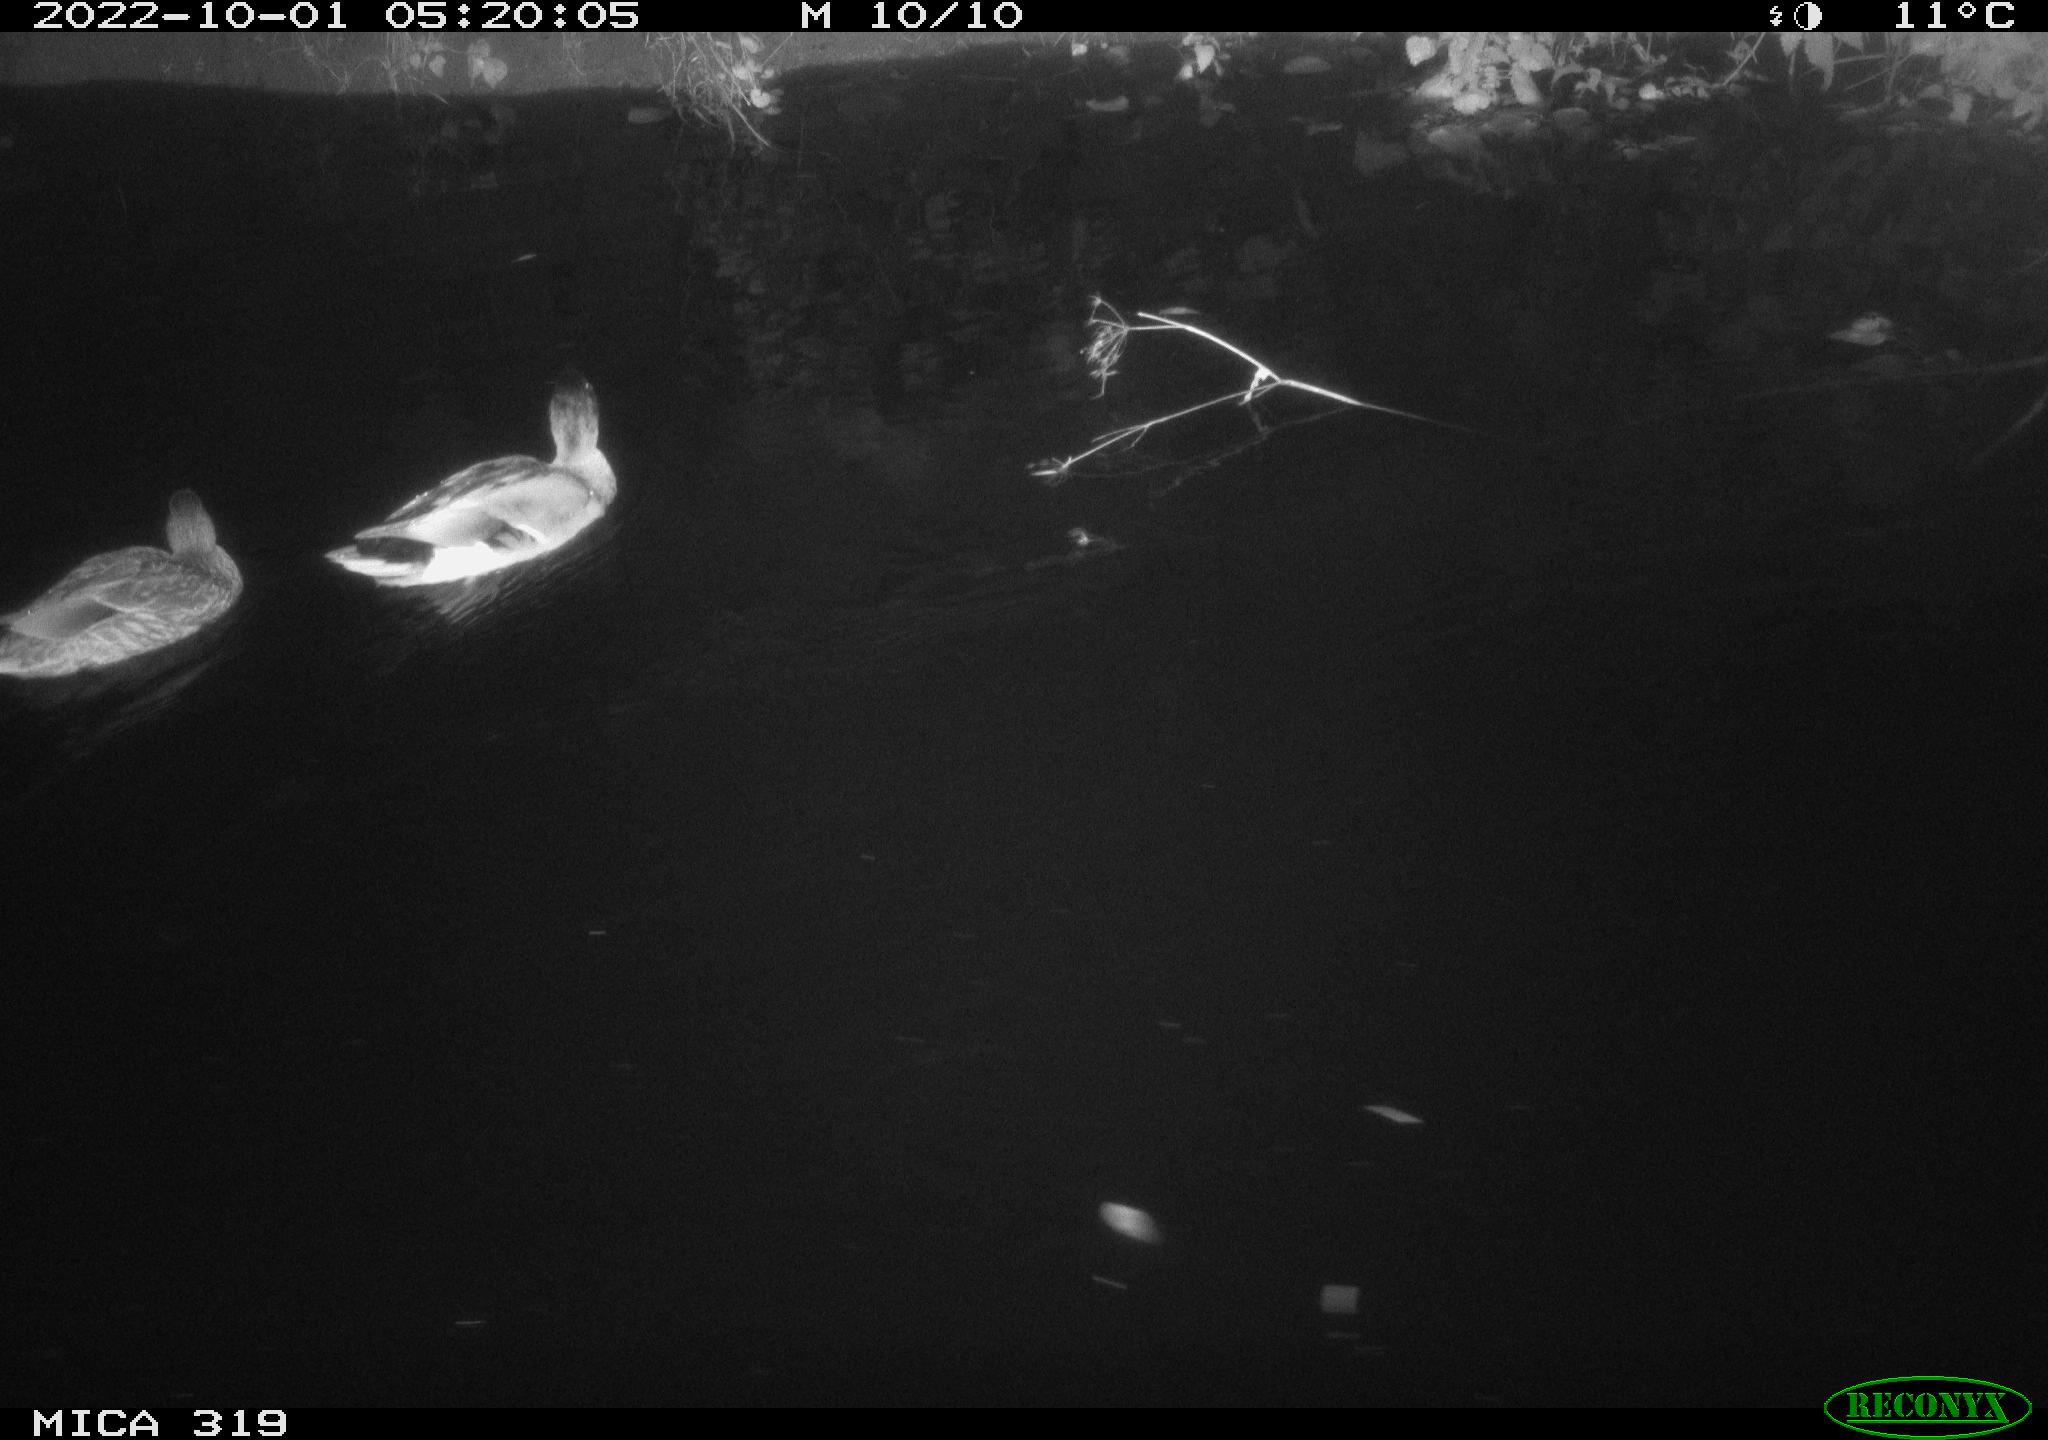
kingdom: Animalia
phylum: Chordata
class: Aves
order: Anseriformes
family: Anatidae
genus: Anas
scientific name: Anas
